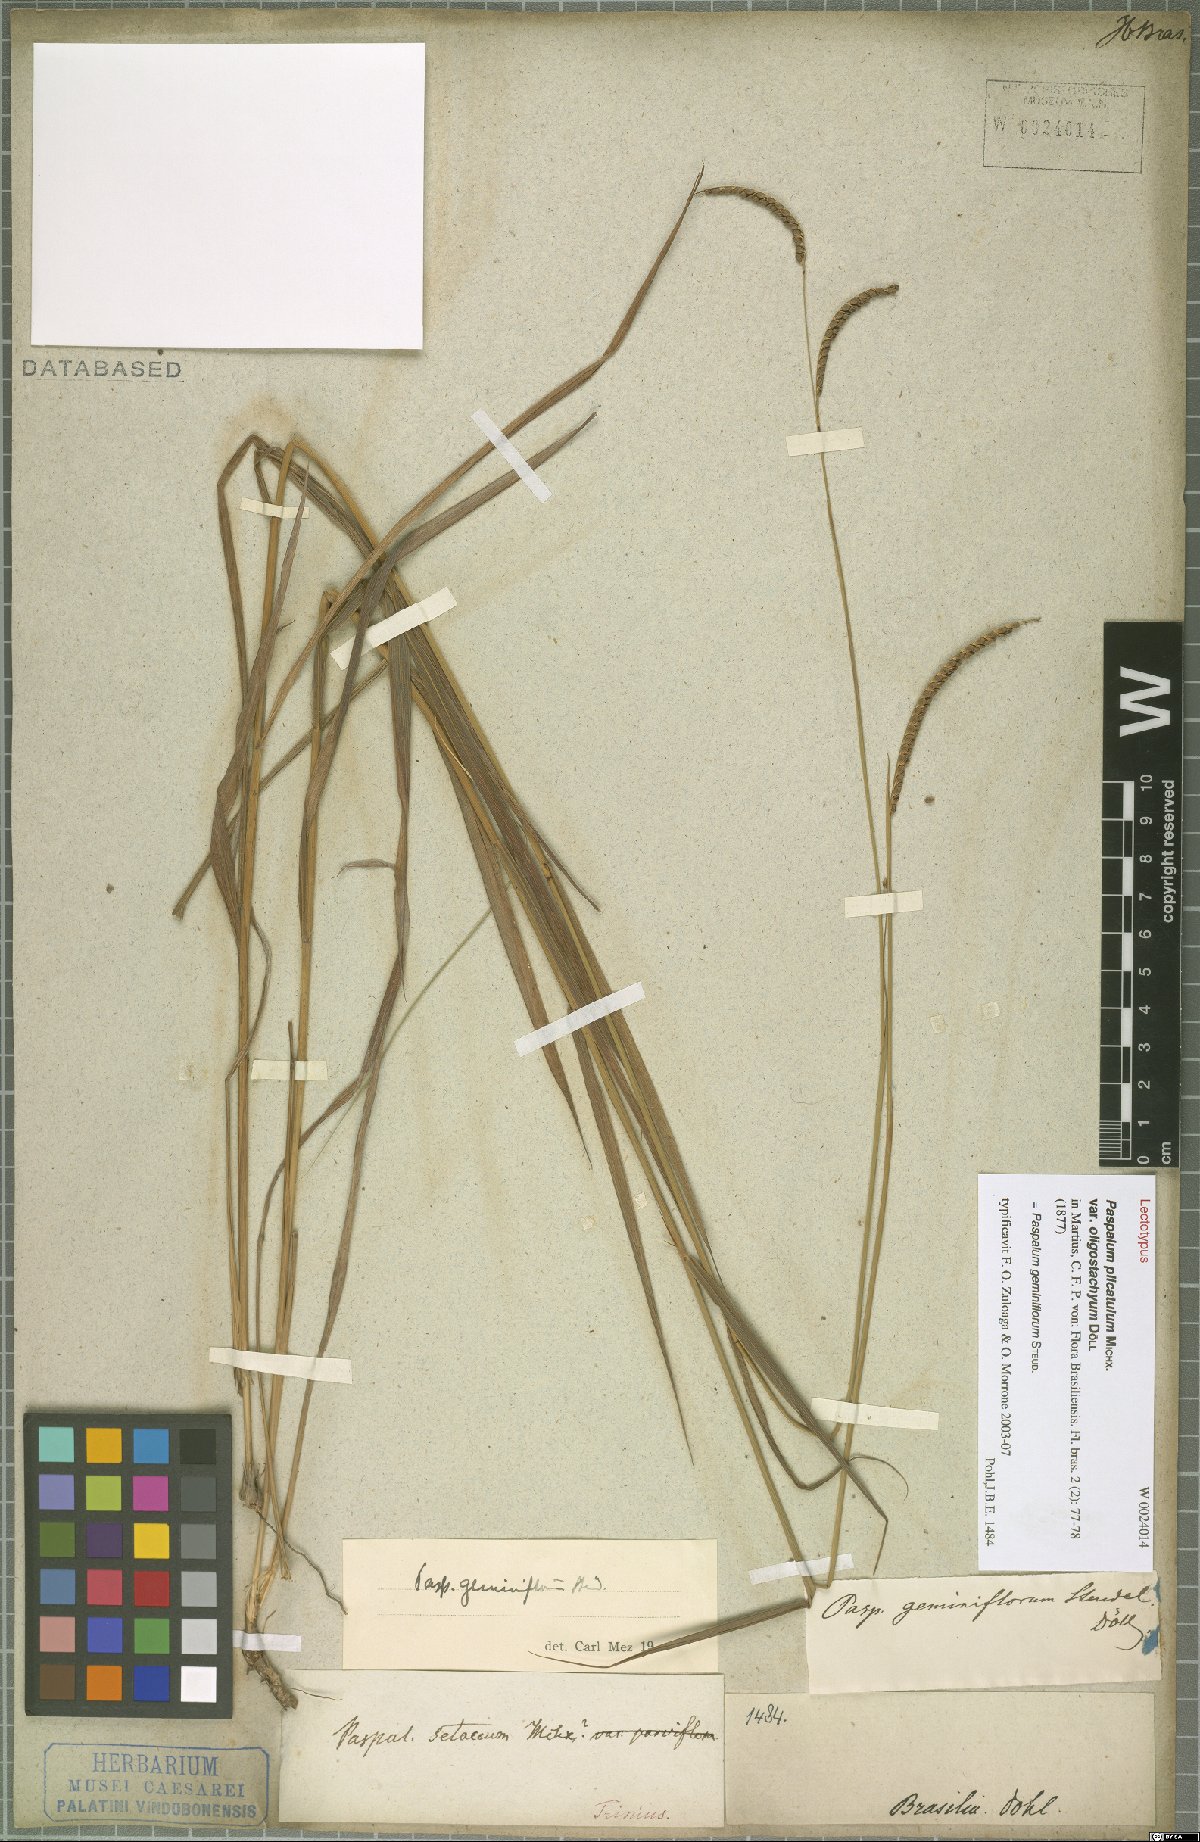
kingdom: Plantae
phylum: Tracheophyta
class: Liliopsida
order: Poales
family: Poaceae
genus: Paspalum
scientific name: Paspalum geminiflorum
